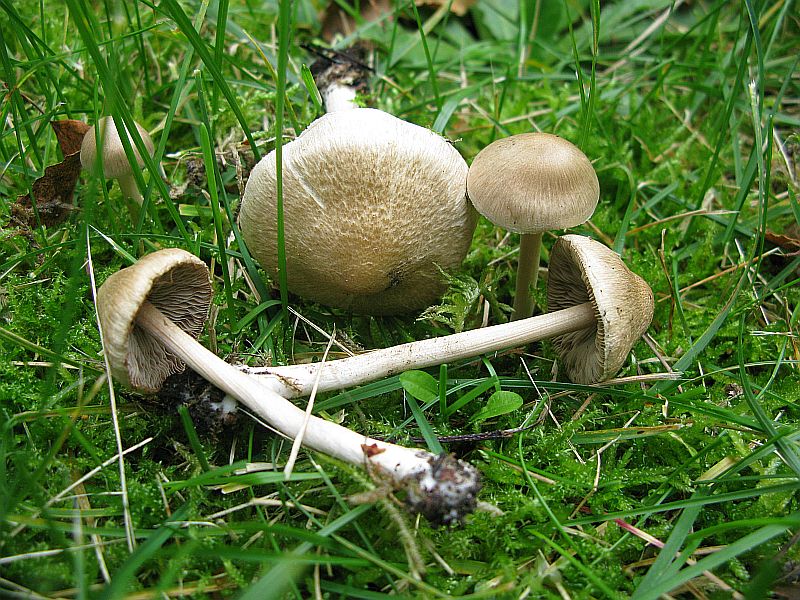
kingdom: Fungi
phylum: Basidiomycota
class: Agaricomycetes
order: Agaricales
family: Inocybaceae
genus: Inocybe
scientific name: Inocybe
